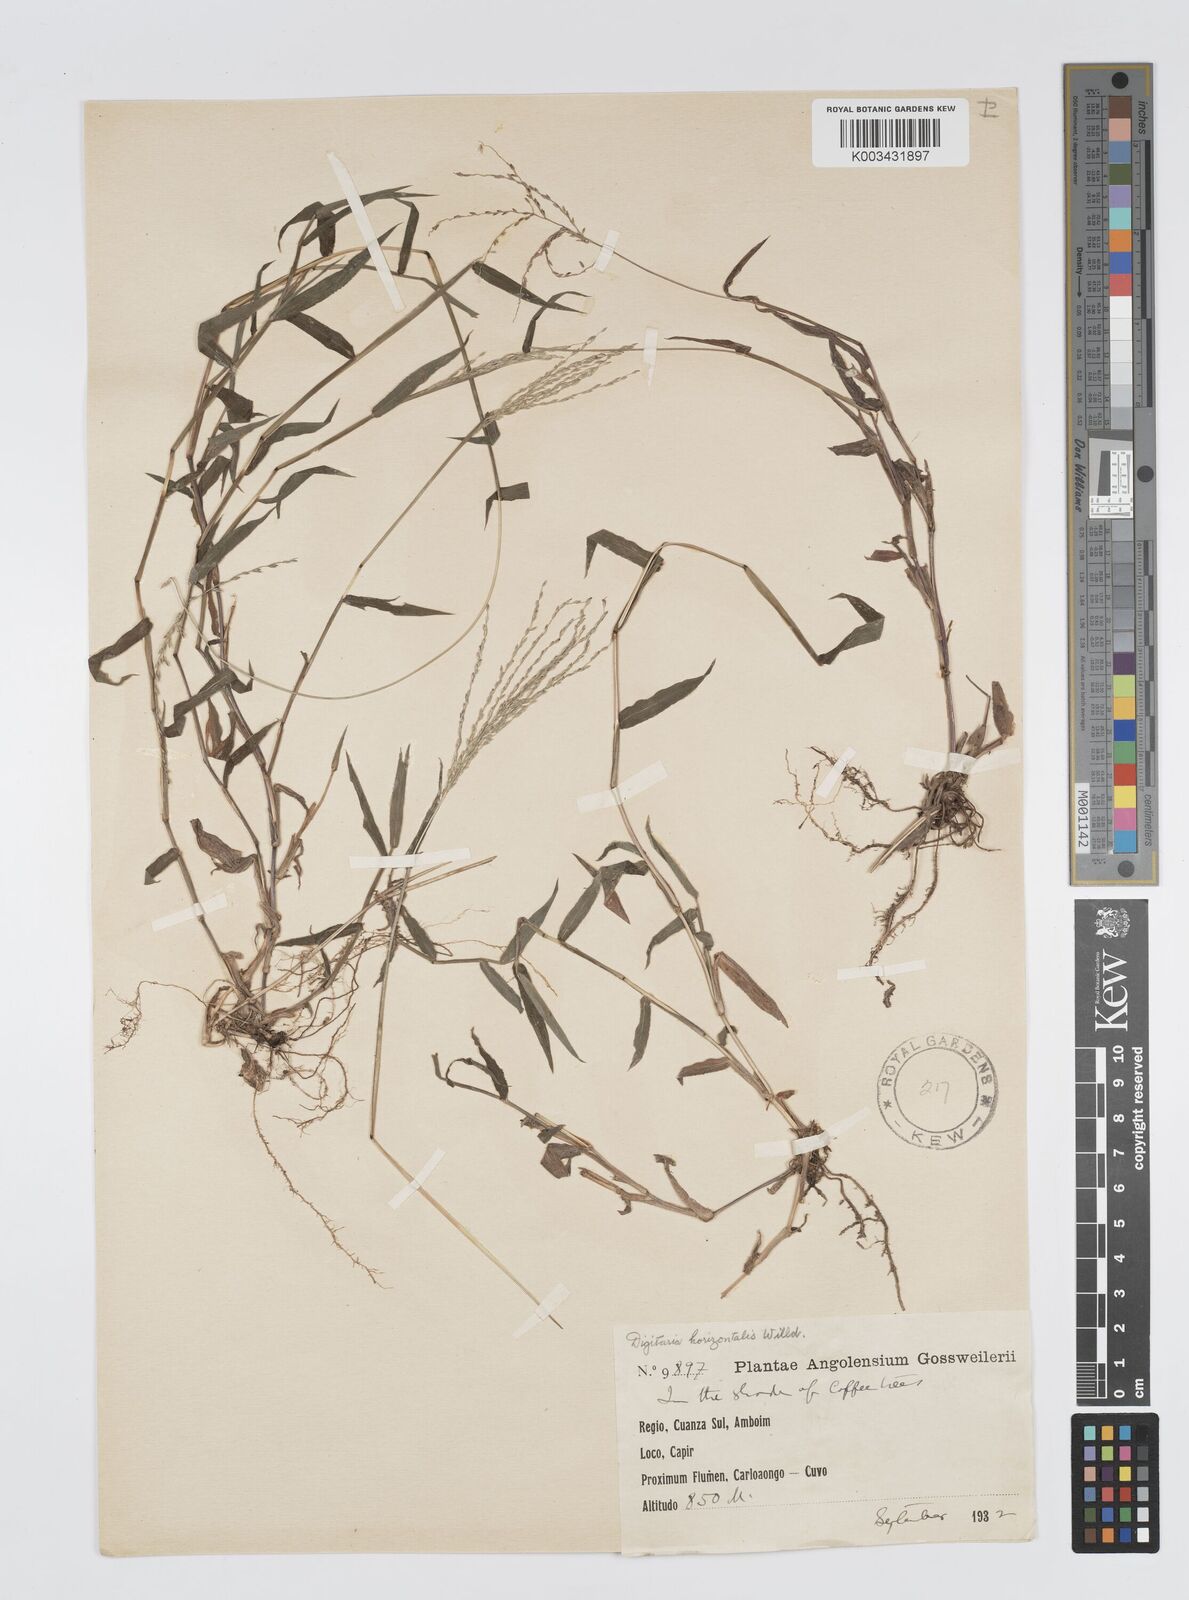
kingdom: Plantae
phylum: Tracheophyta
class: Liliopsida
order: Poales
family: Poaceae
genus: Digitaria
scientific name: Digitaria velutina
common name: Long-plume finger grass
